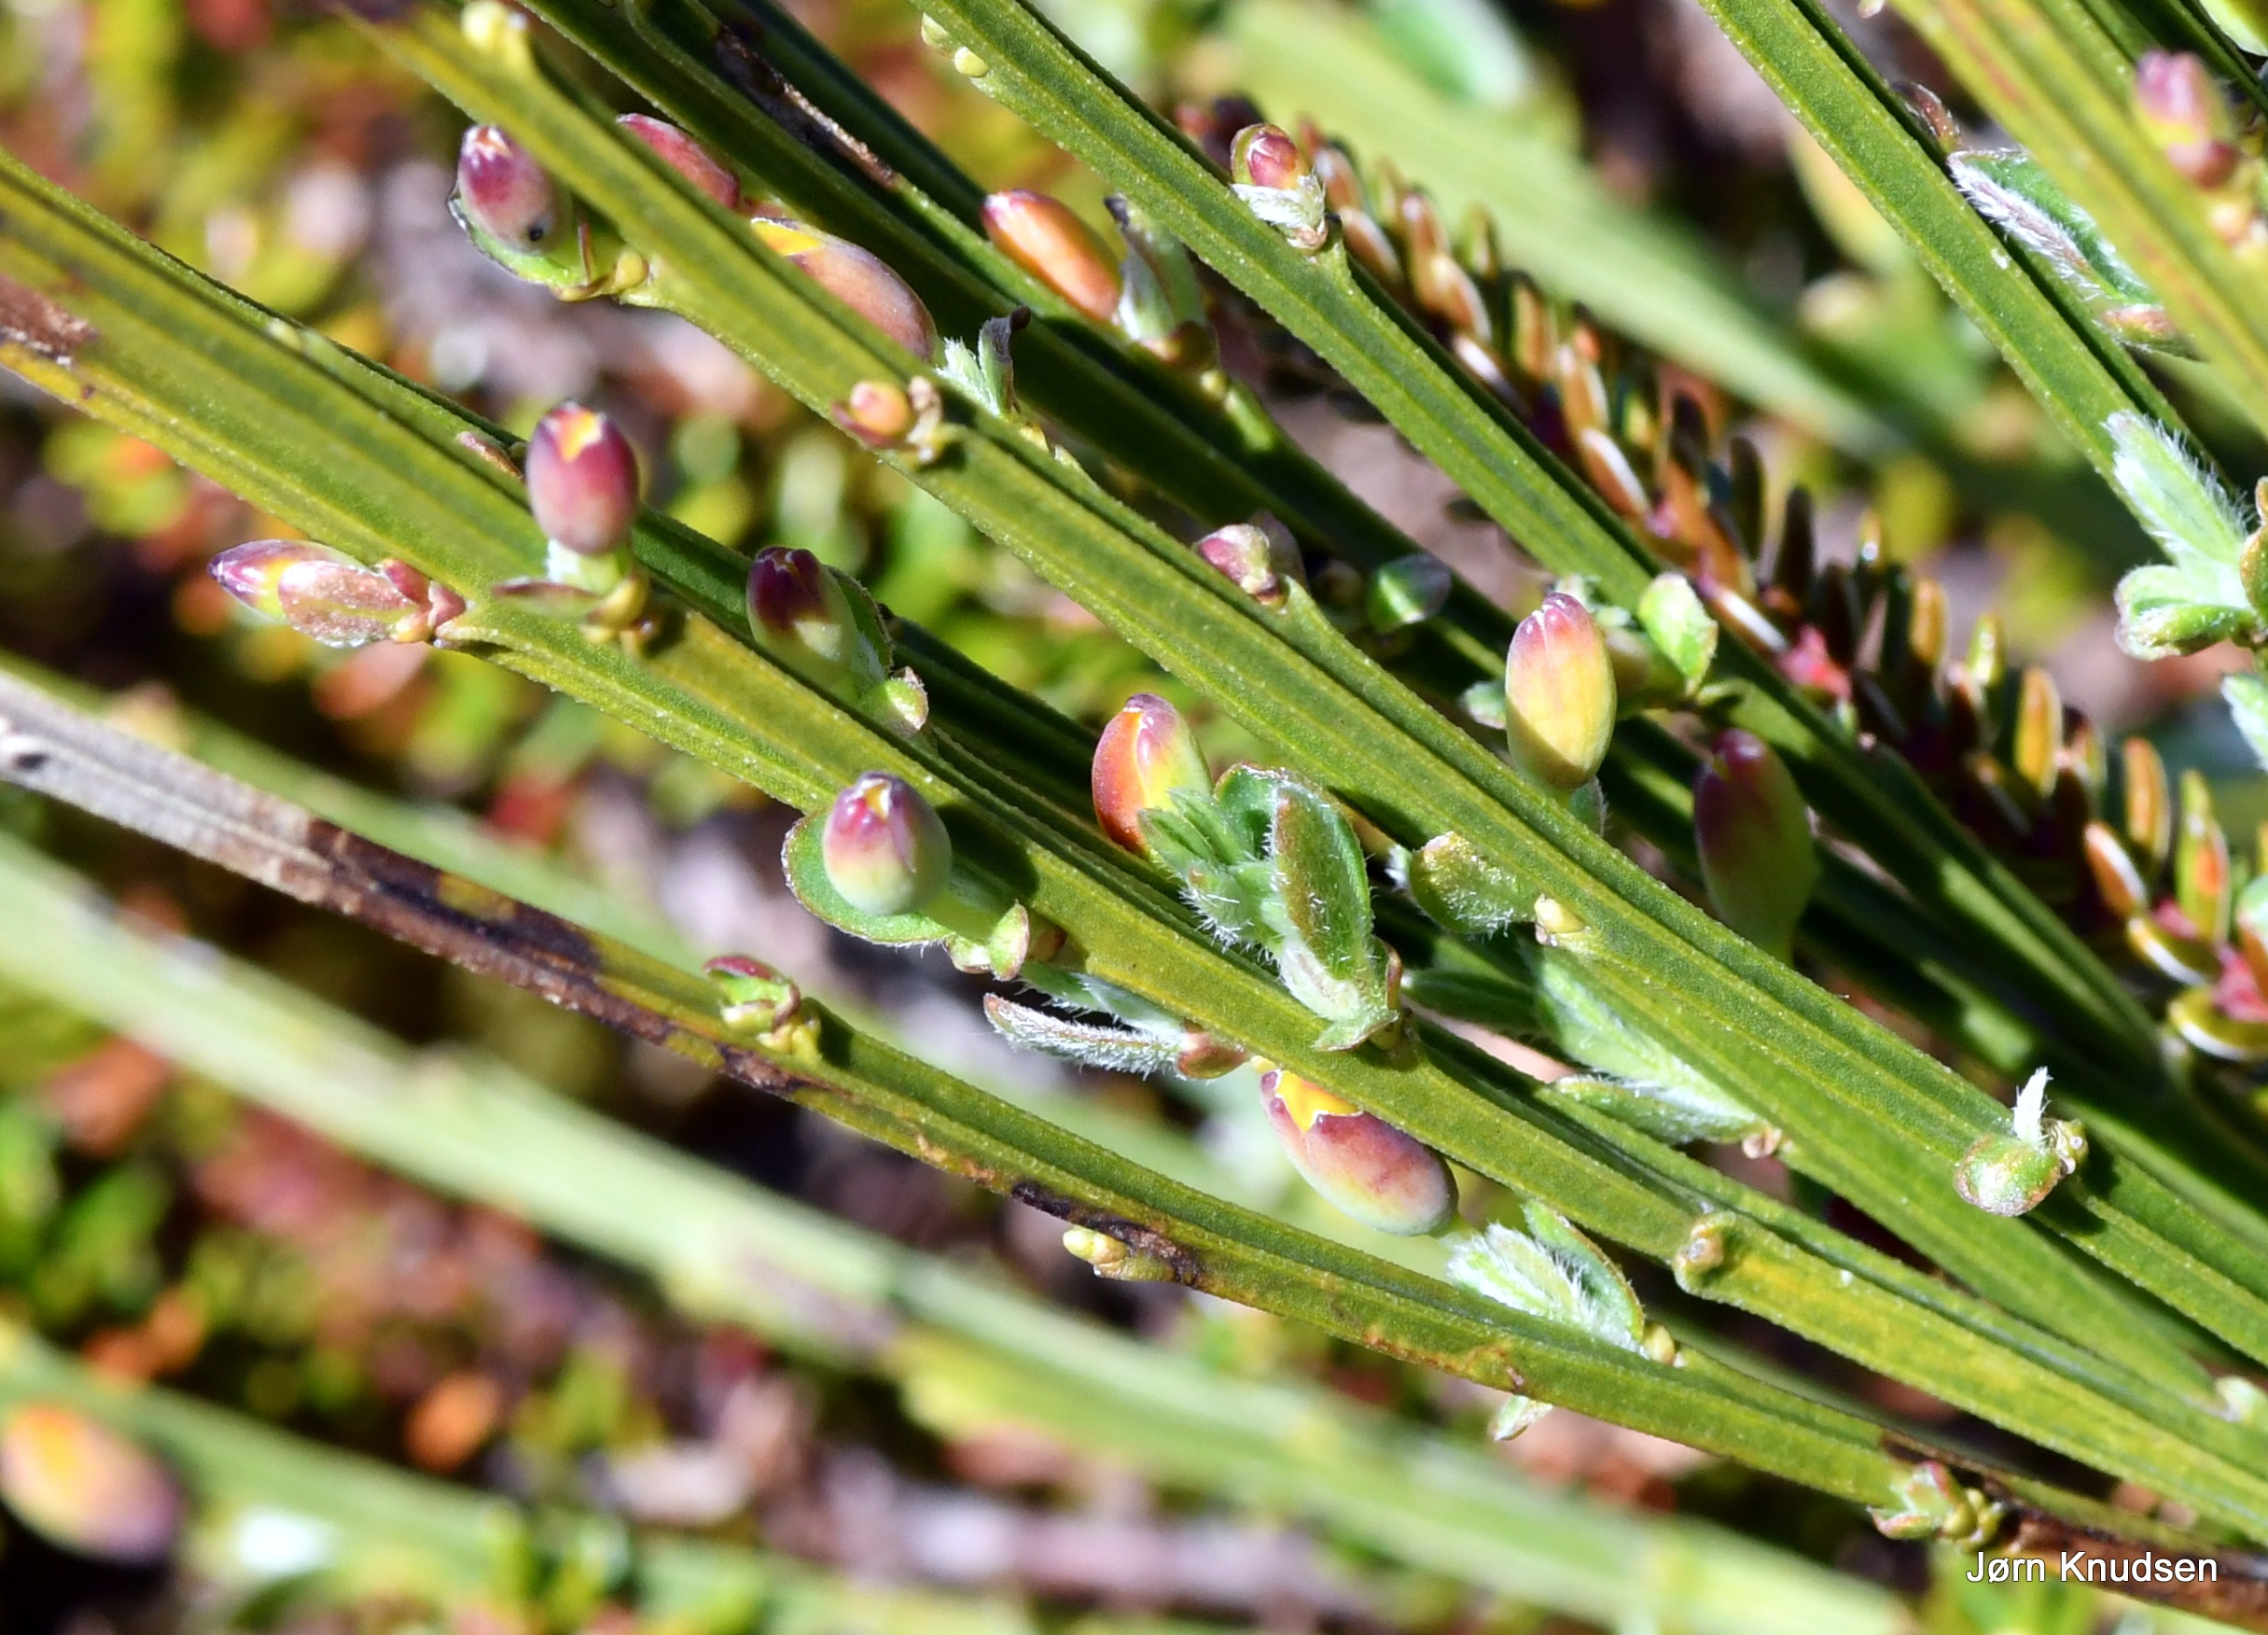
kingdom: Plantae
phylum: Tracheophyta
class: Magnoliopsida
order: Fabales
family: Fabaceae
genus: Cytisus
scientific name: Cytisus scoparius
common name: Almindelig gyvel
